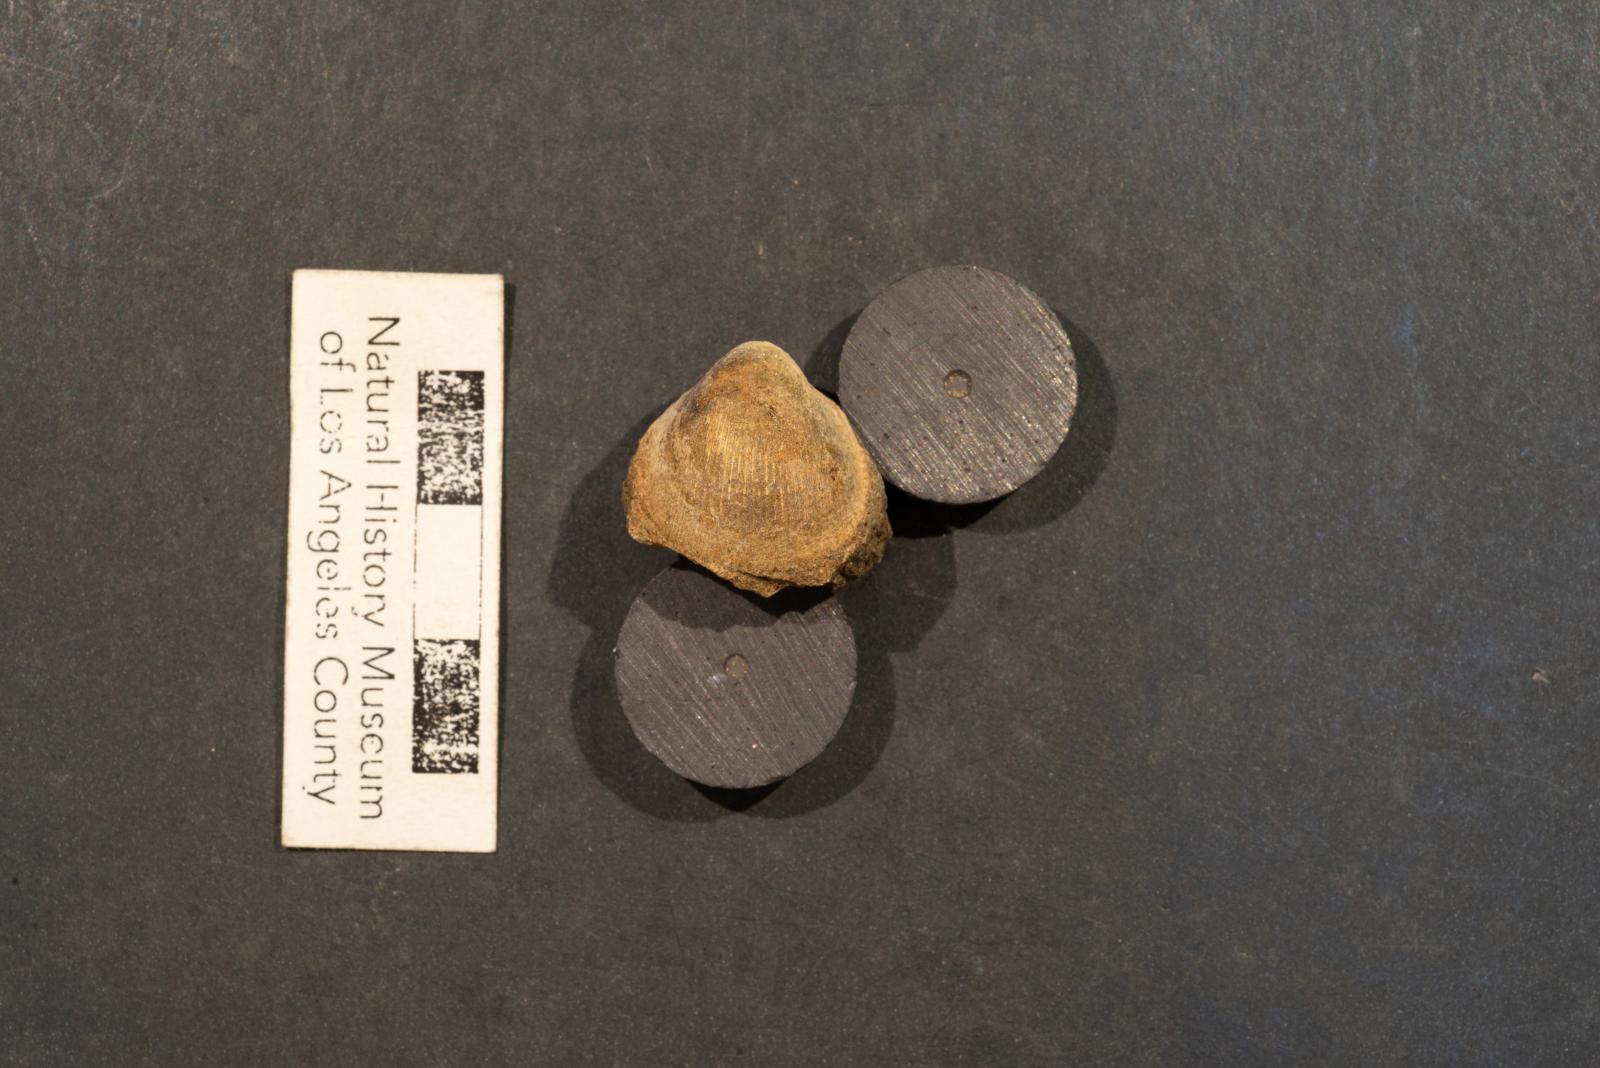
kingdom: Animalia
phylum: Mollusca
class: Bivalvia
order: Arcida
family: Glycymerididae
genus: Glycymerita
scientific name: Glycymerita Axinaea veatchii
